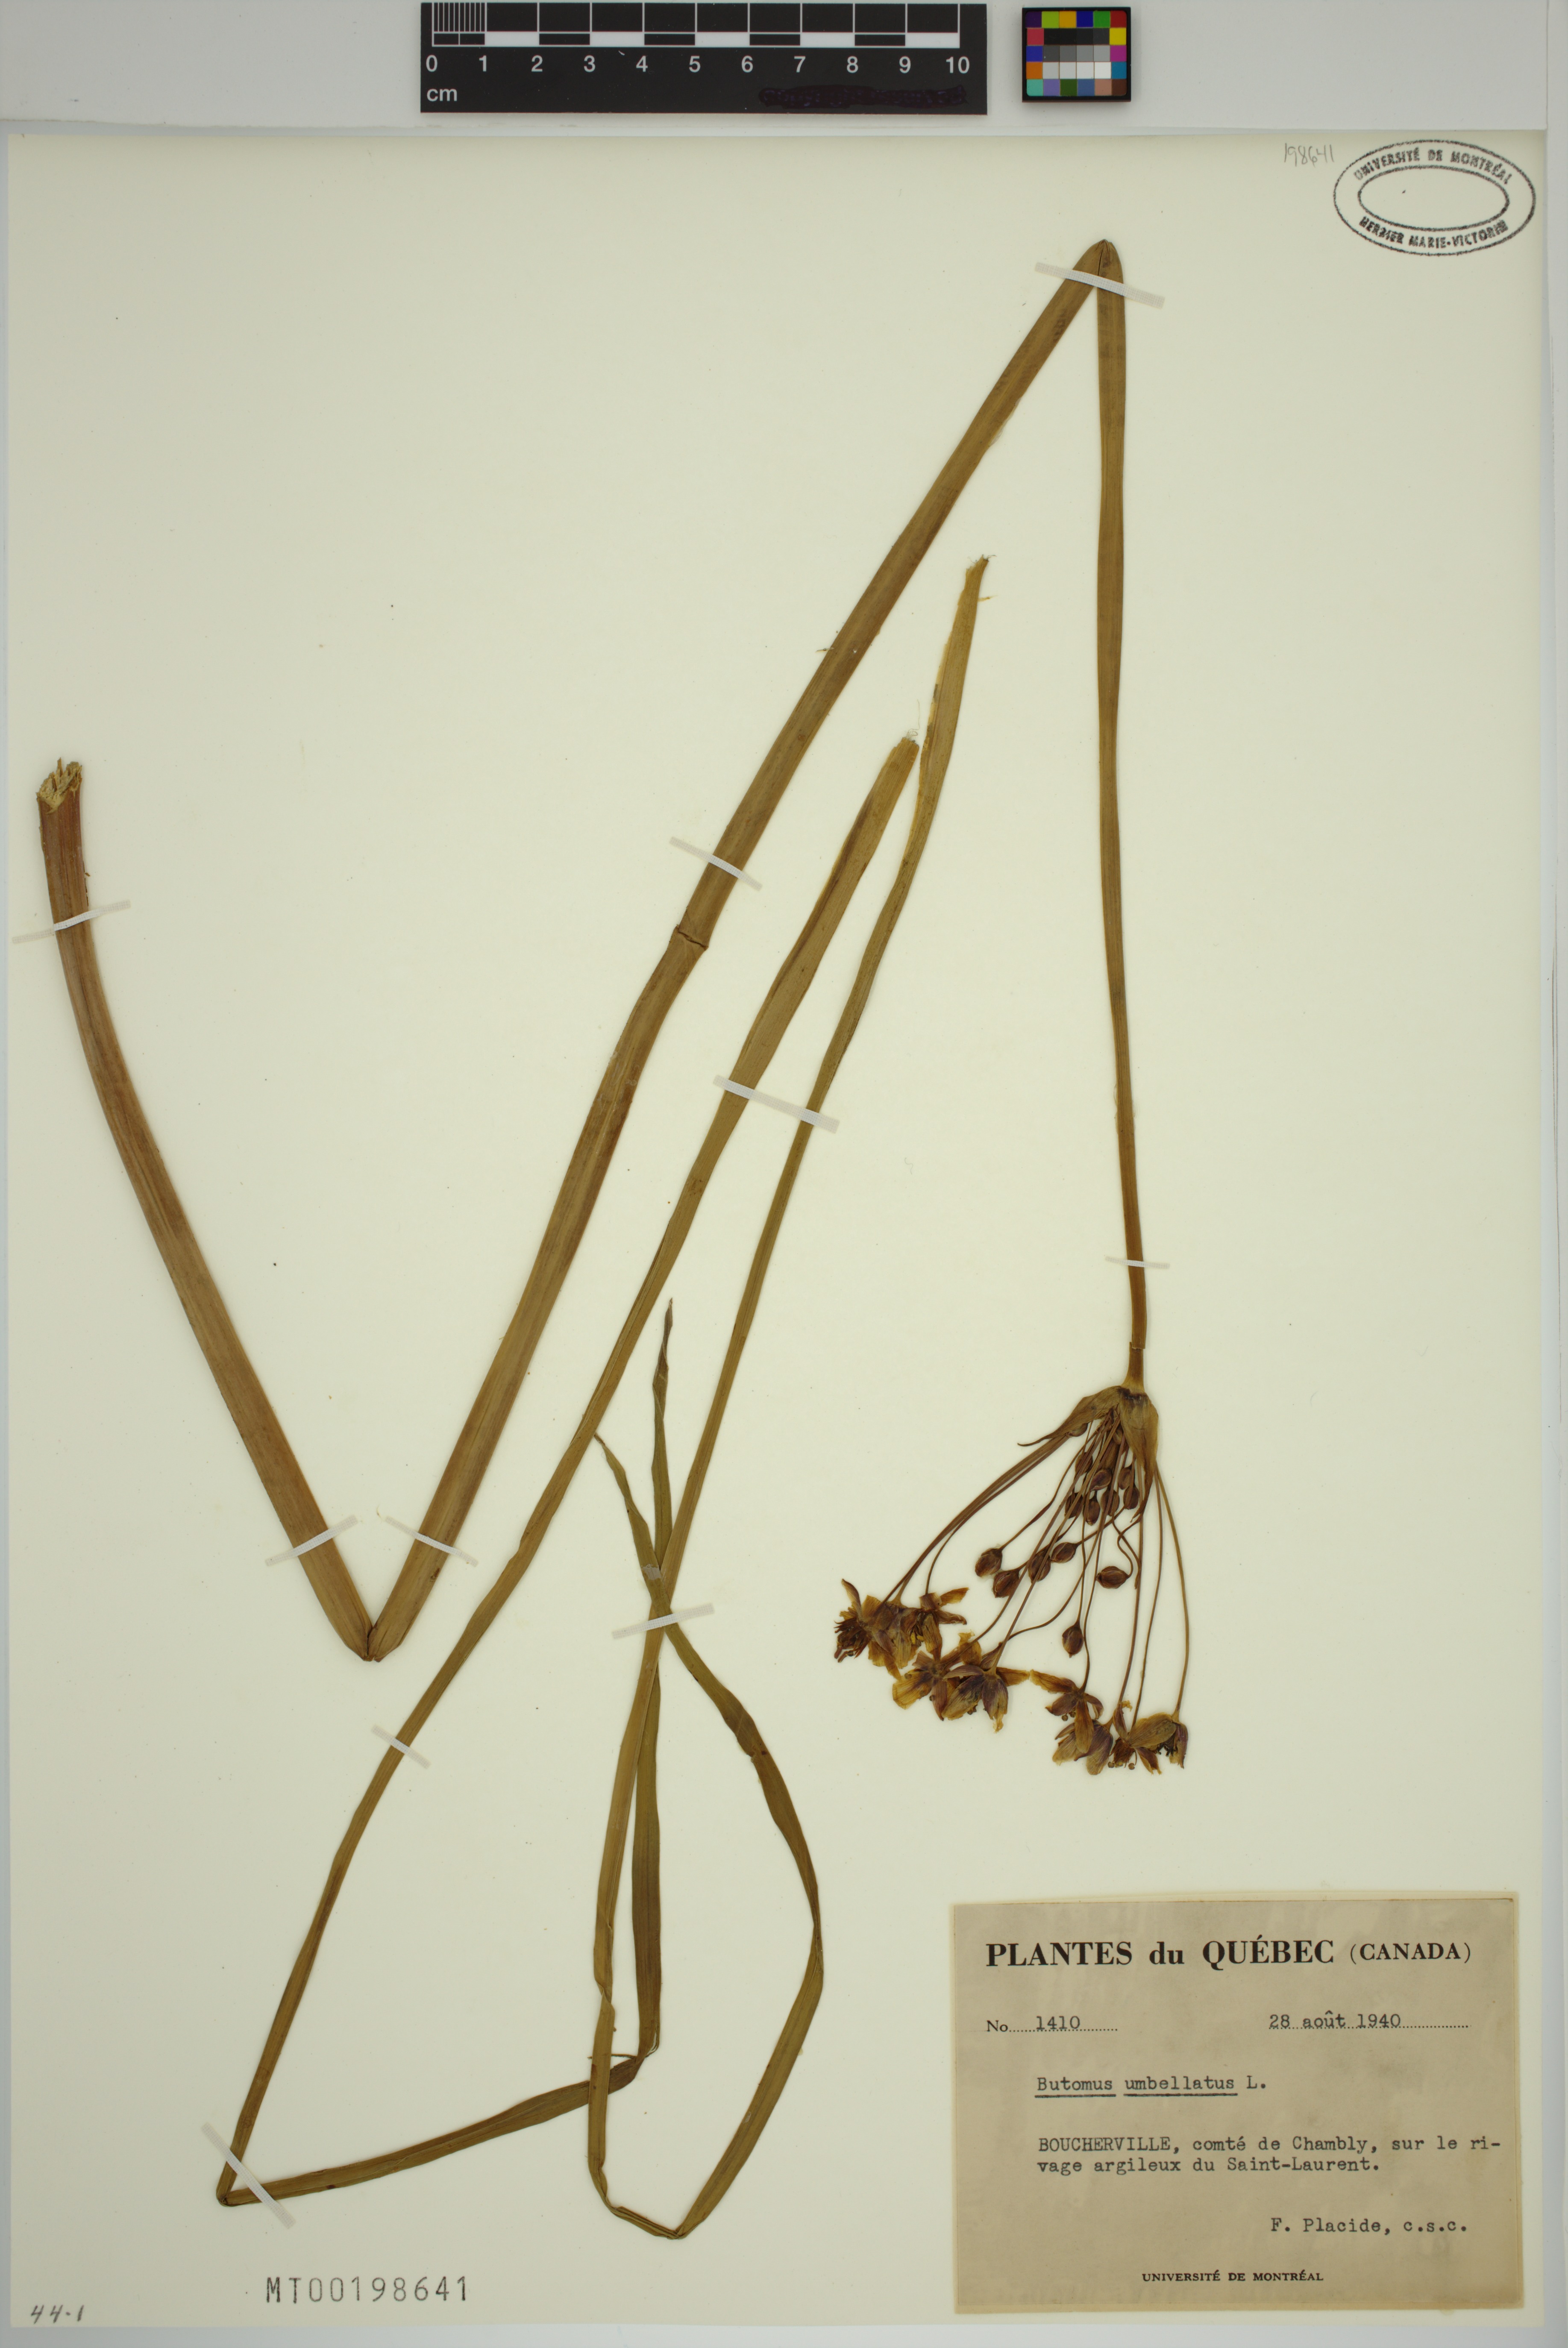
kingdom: Plantae
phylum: Tracheophyta
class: Liliopsida
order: Alismatales
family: Butomaceae
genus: Butomus
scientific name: Butomus umbellatus
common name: Flowering-rush
